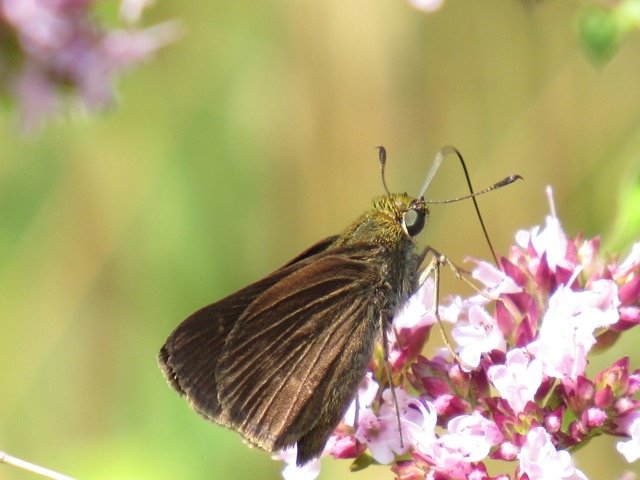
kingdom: Animalia
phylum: Arthropoda
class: Insecta
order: Lepidoptera
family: Hesperiidae
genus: Euphyes
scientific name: Euphyes vestris
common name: Dun Skipper
